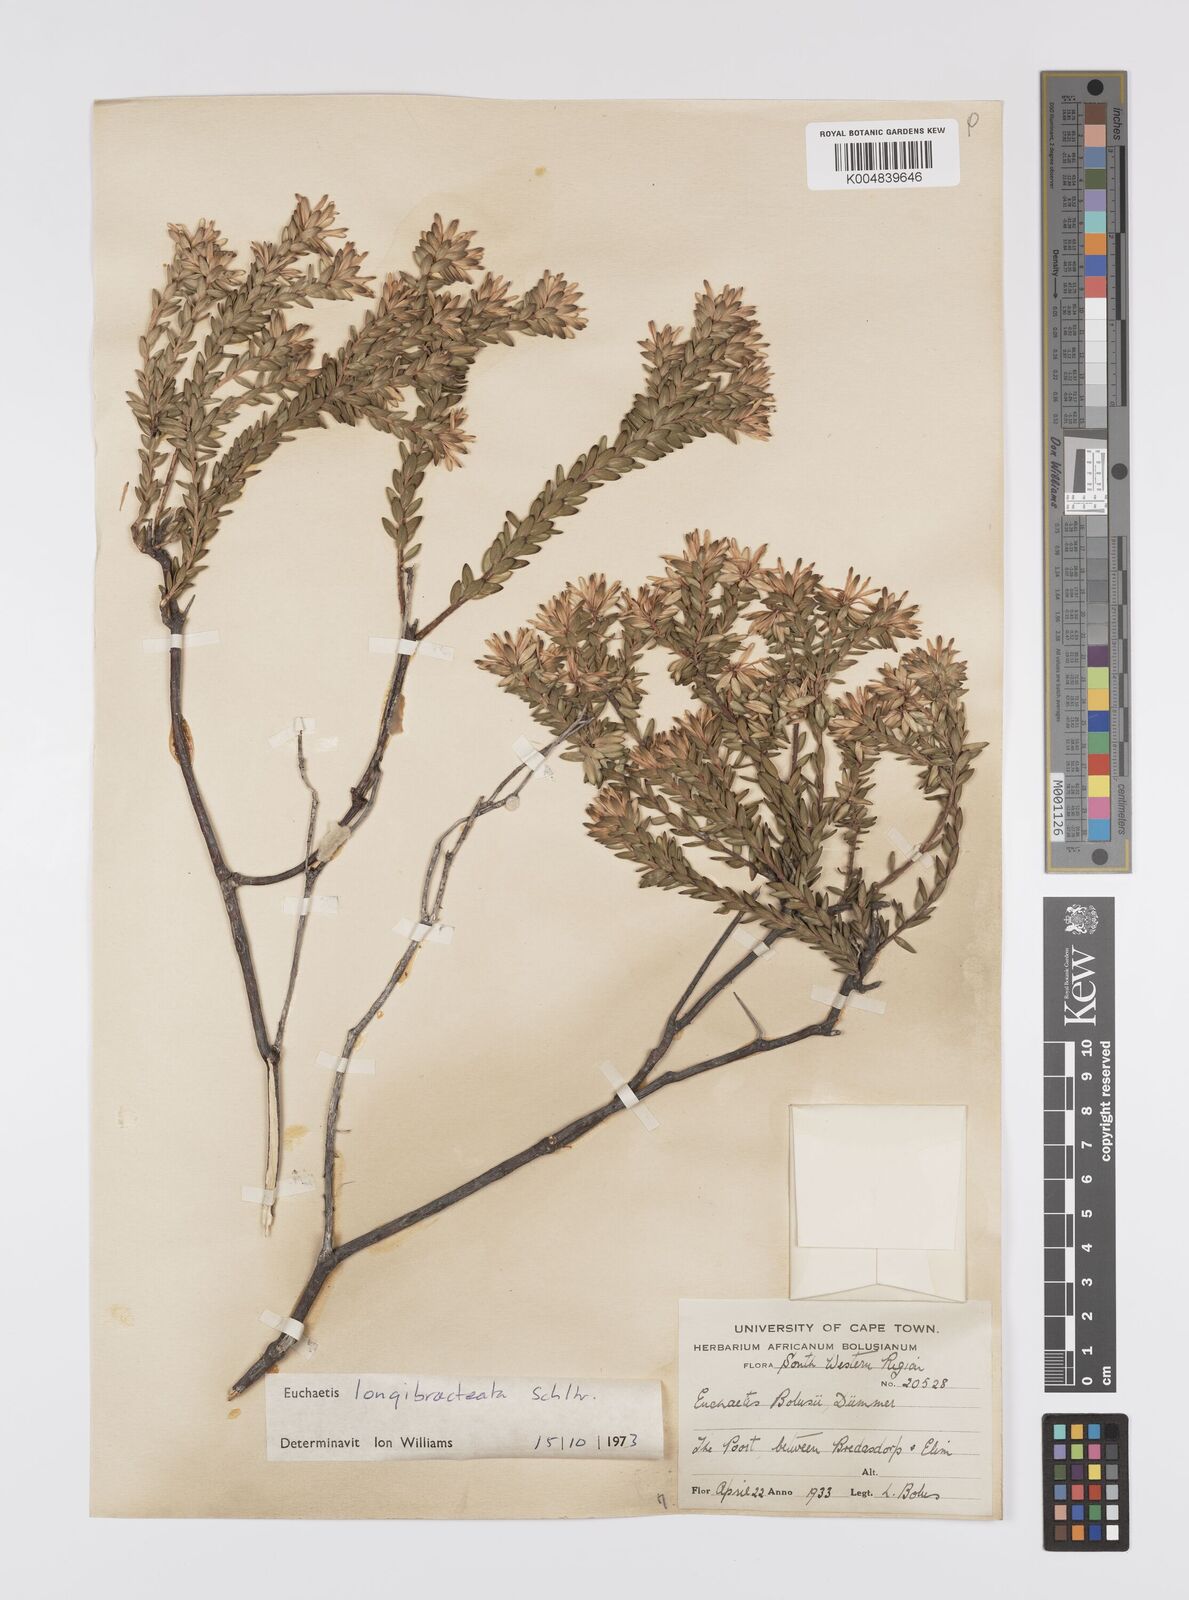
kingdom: Plantae
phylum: Tracheophyta
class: Magnoliopsida
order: Sapindales
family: Rutaceae
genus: Euchaetis
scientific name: Euchaetis longibracteata
